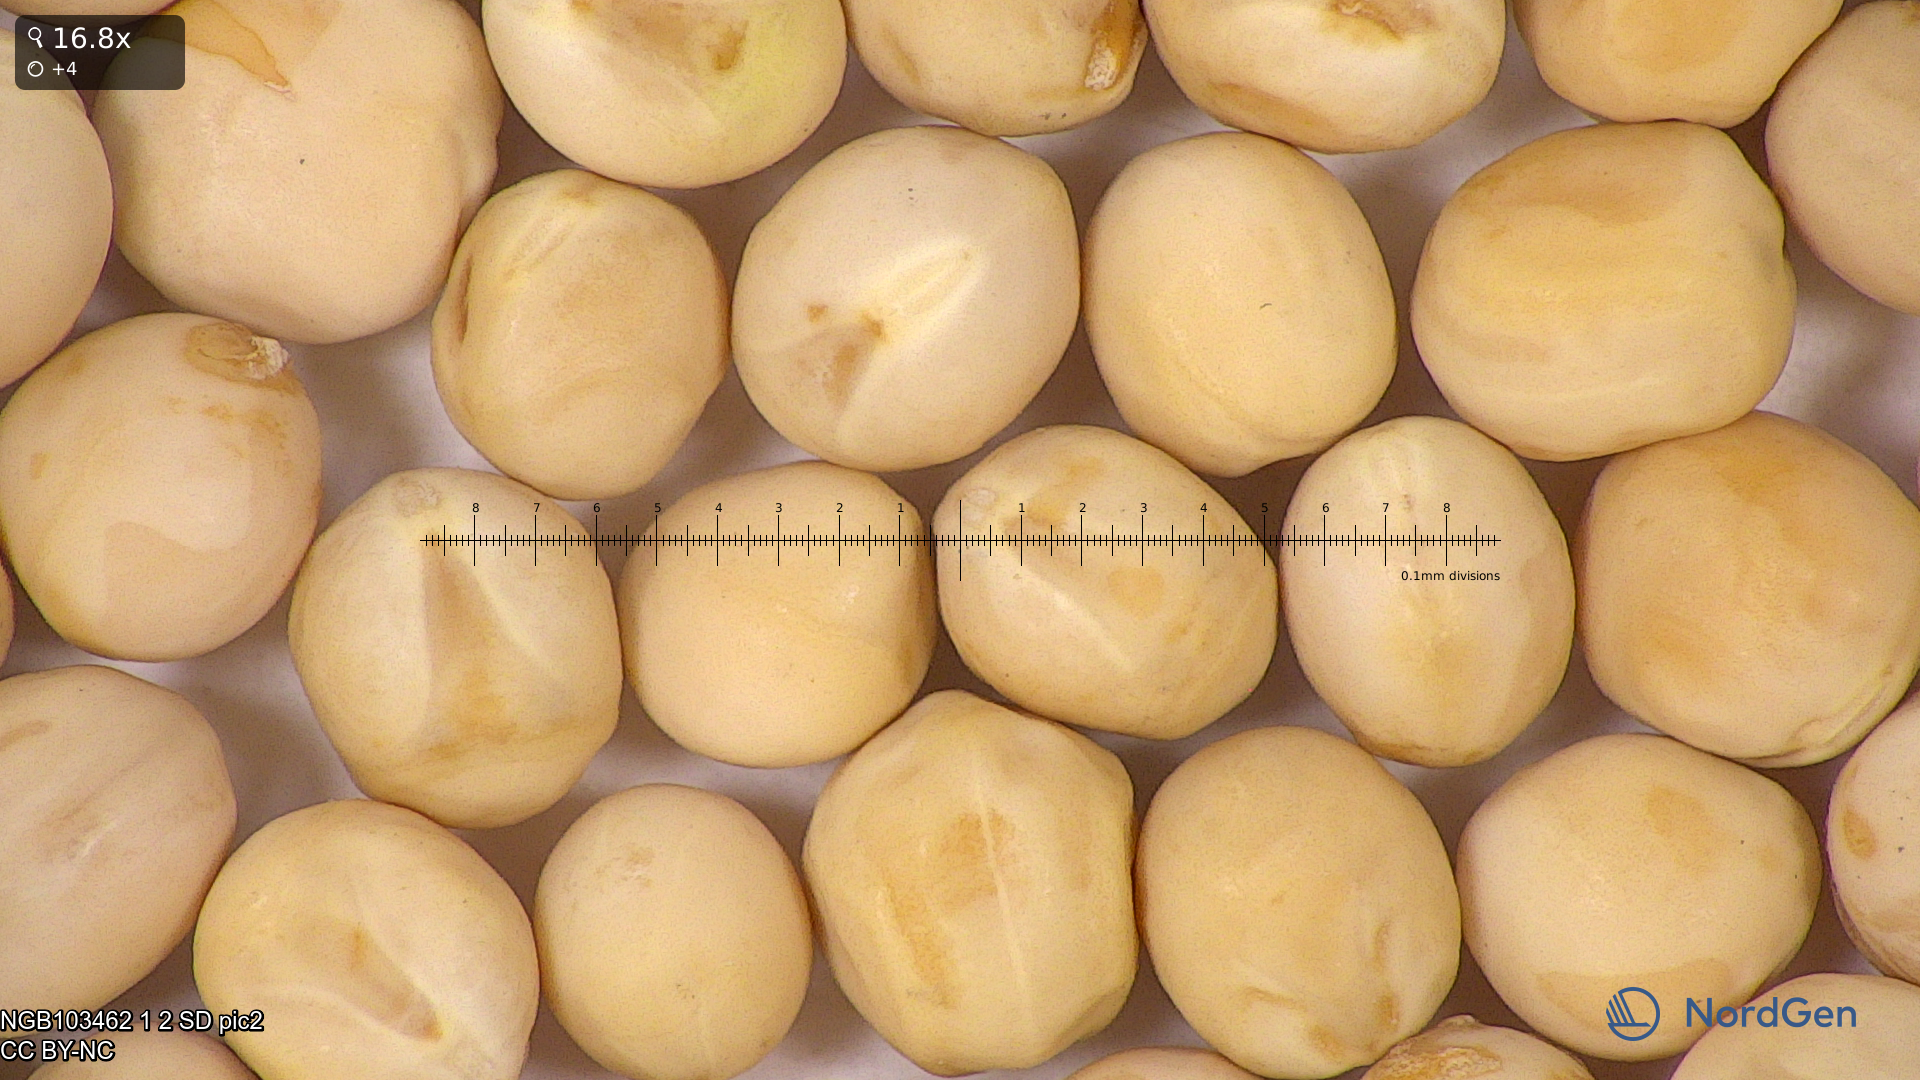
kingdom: Plantae
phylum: Tracheophyta
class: Magnoliopsida
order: Fabales
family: Fabaceae
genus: Lathyrus
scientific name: Lathyrus oleraceus
